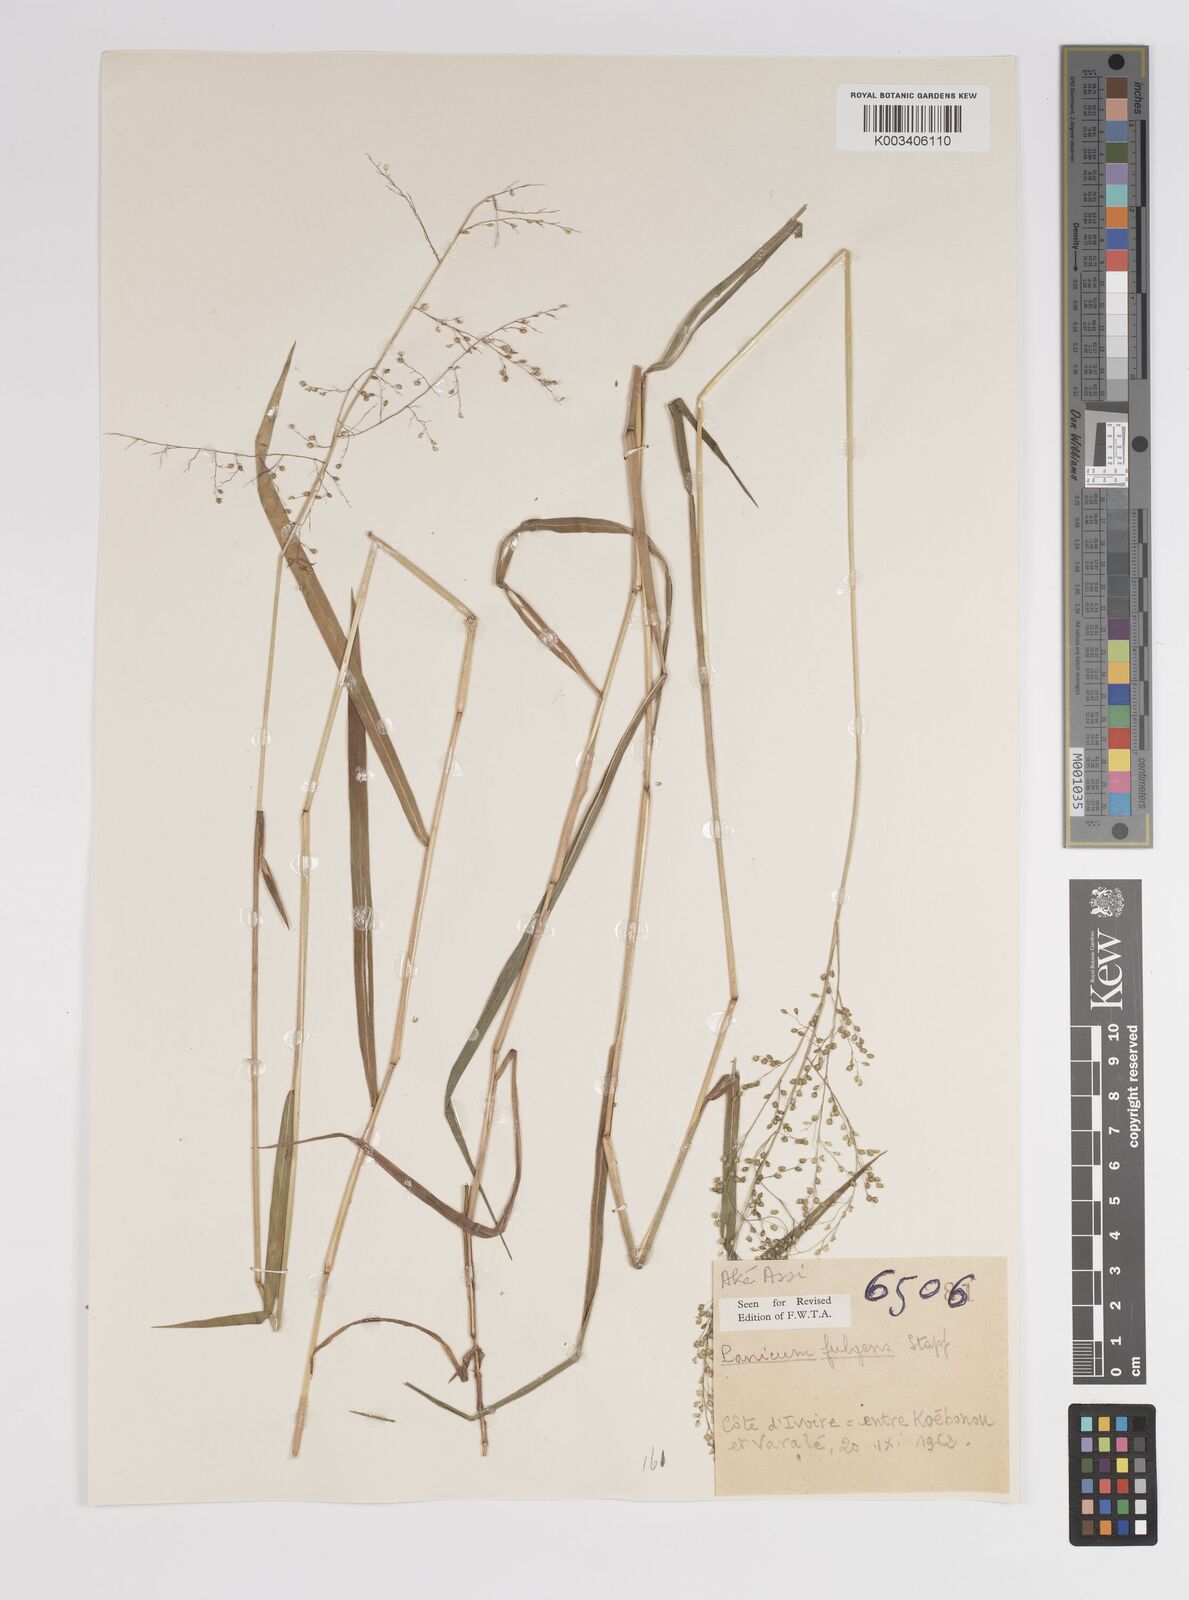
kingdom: Plantae
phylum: Tracheophyta
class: Liliopsida
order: Poales
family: Poaceae
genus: Trichanthecium
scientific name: Trichanthecium nervatum
